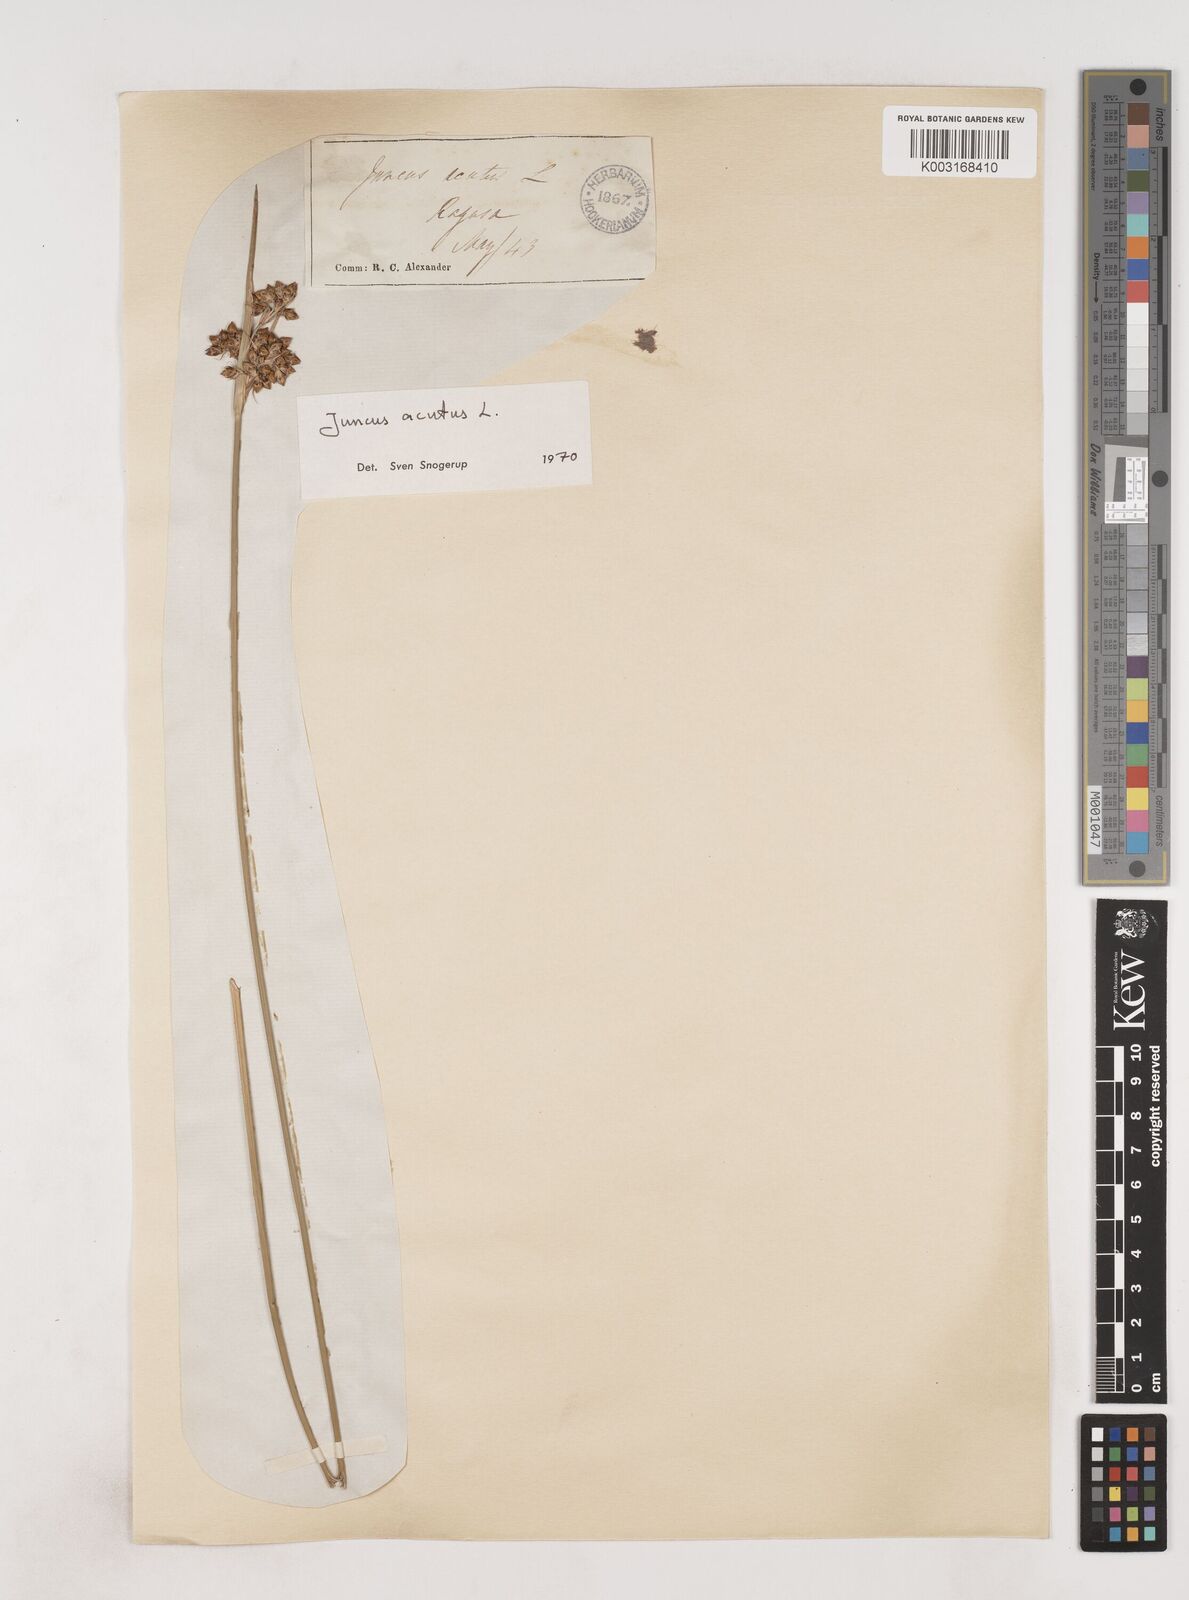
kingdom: Plantae
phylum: Tracheophyta
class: Liliopsida
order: Poales
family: Juncaceae
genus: Juncus
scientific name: Juncus acutus
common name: Sharp rush
